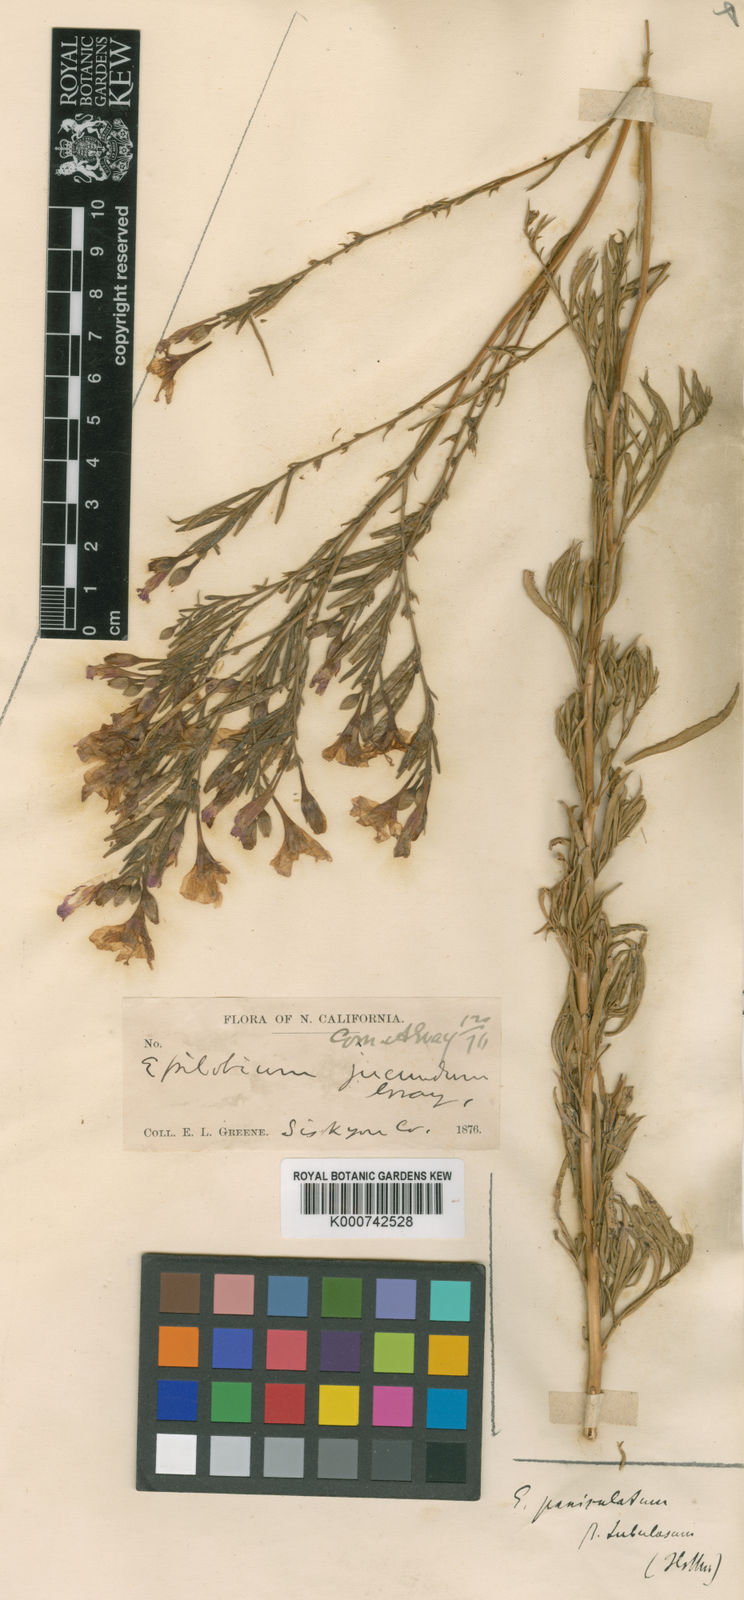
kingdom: Plantae
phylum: Tracheophyta
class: Magnoliopsida
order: Myrtales
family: Onagraceae
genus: Epilobium
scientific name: Epilobium brachycarpum
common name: Annual willowherb
